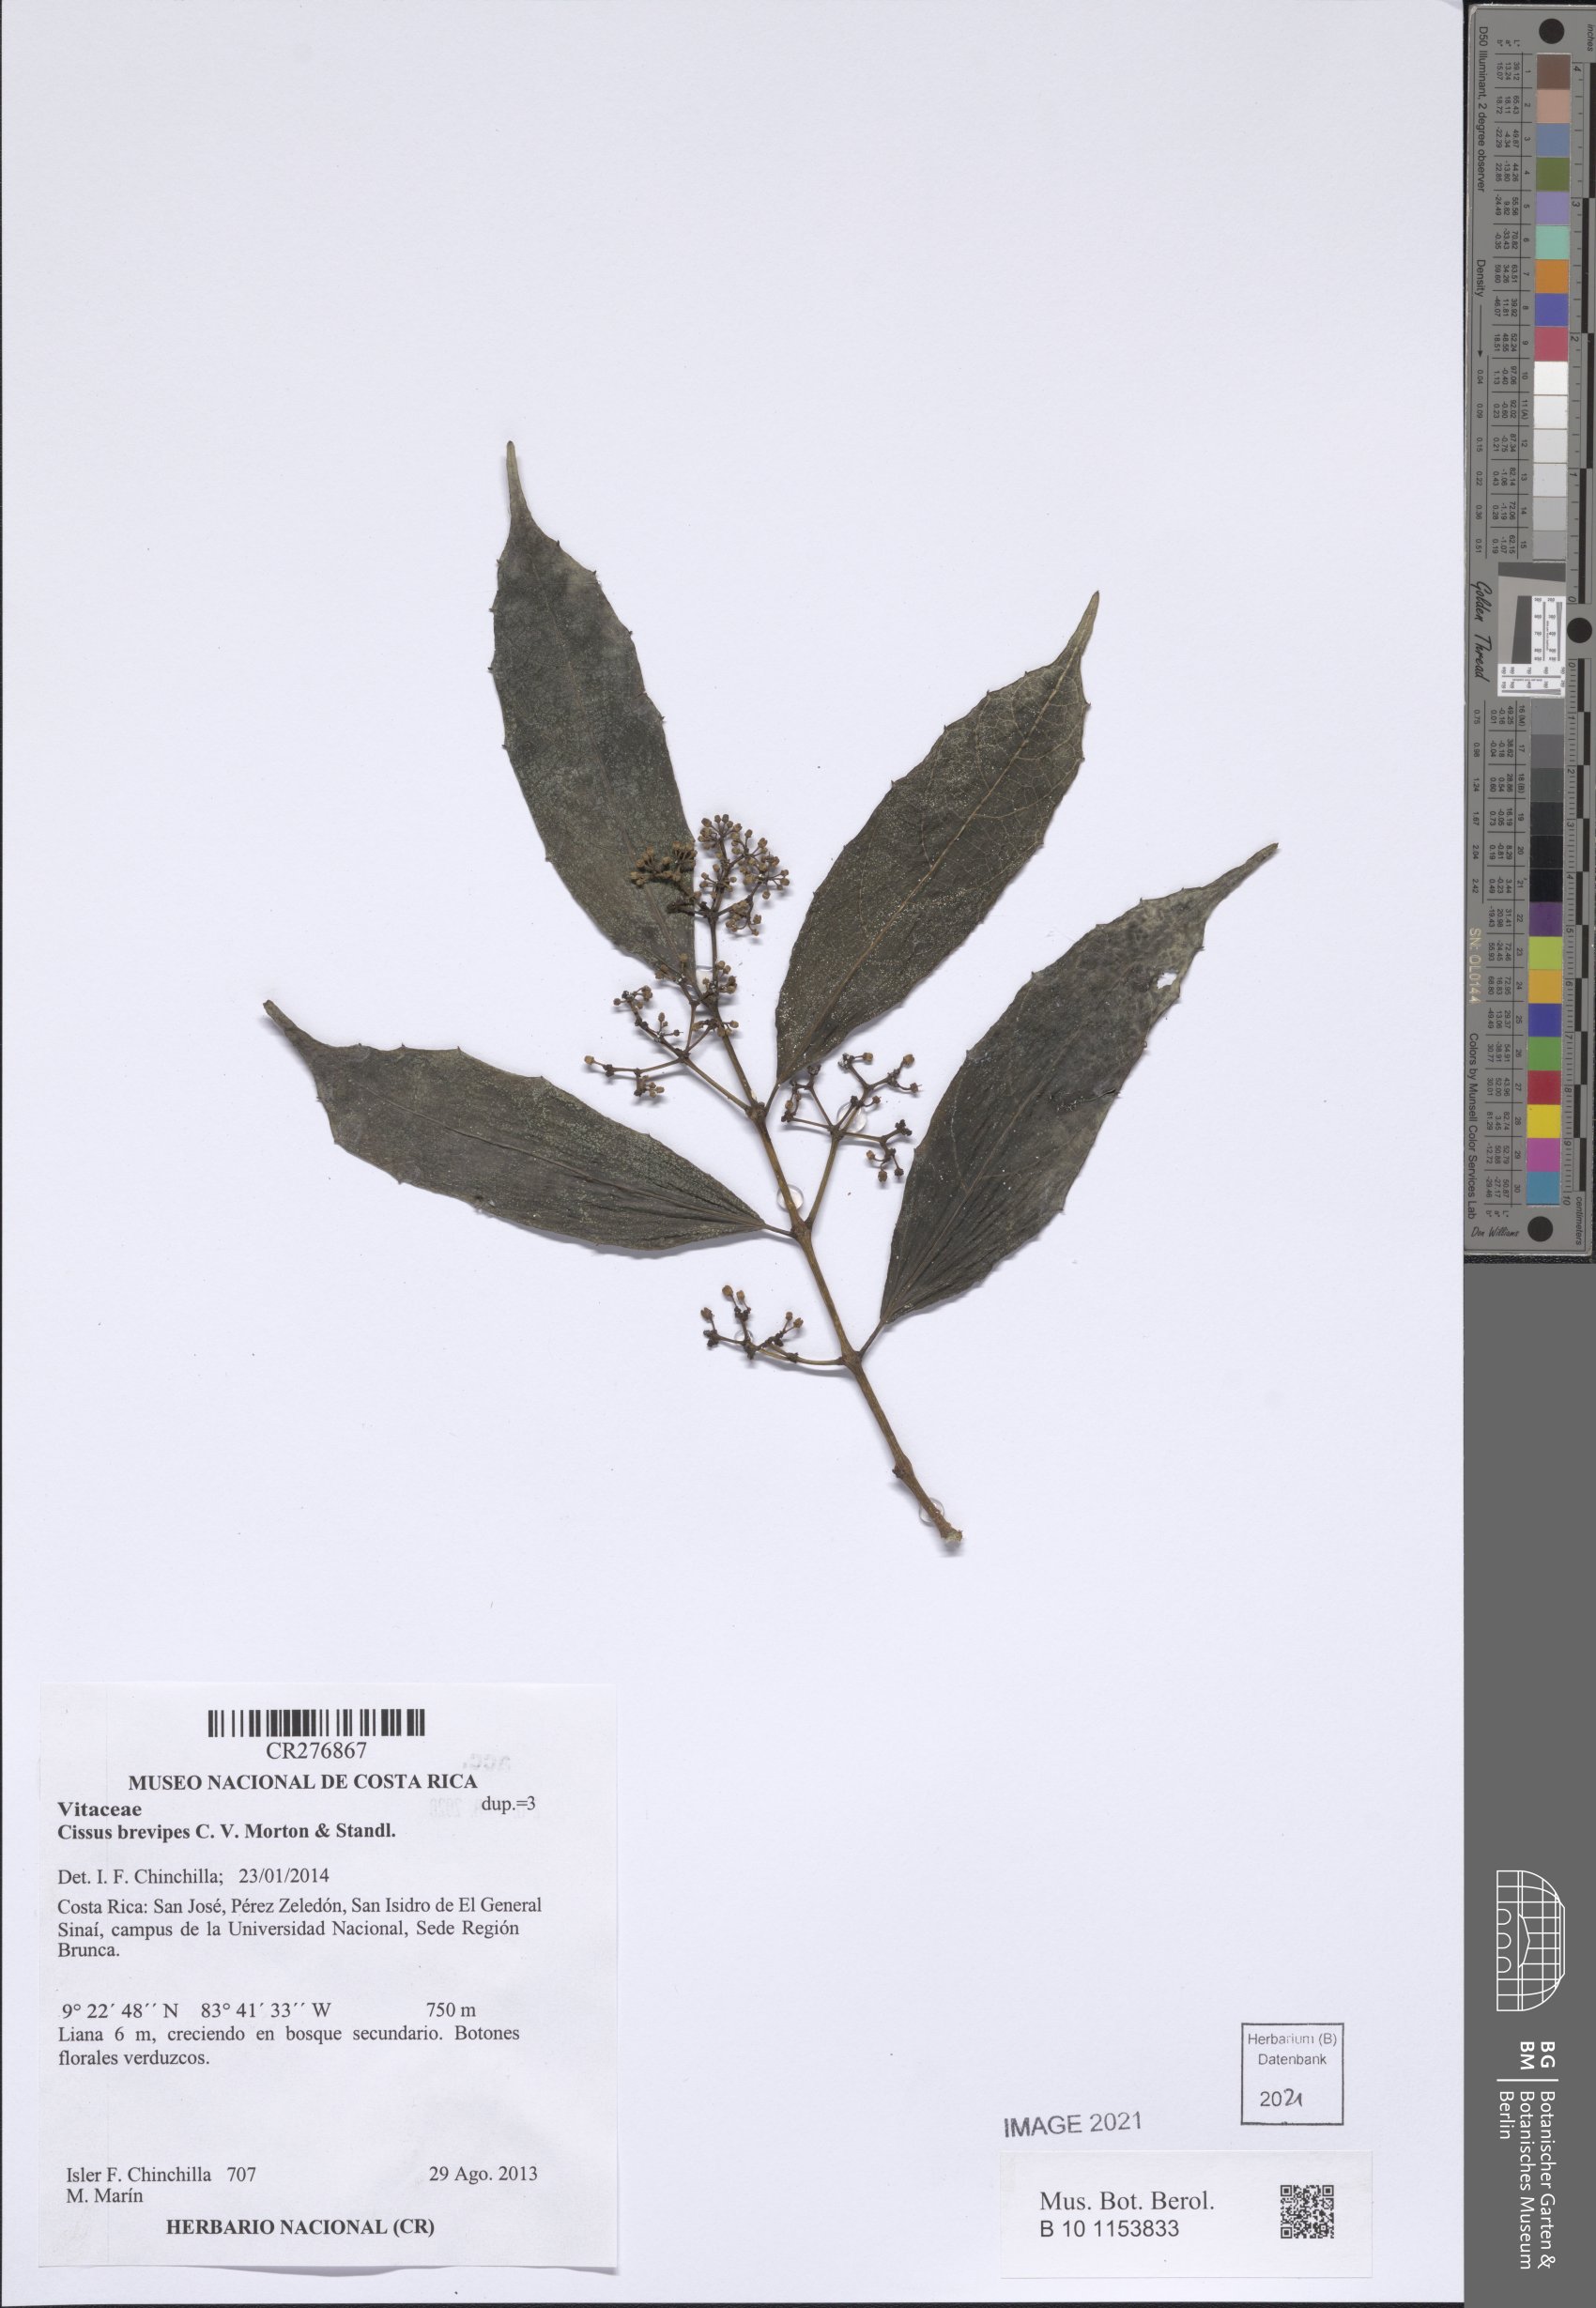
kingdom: Plantae
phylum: Tracheophyta
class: Magnoliopsida
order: Vitales
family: Vitaceae
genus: Cissus
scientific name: Cissus brevipes
